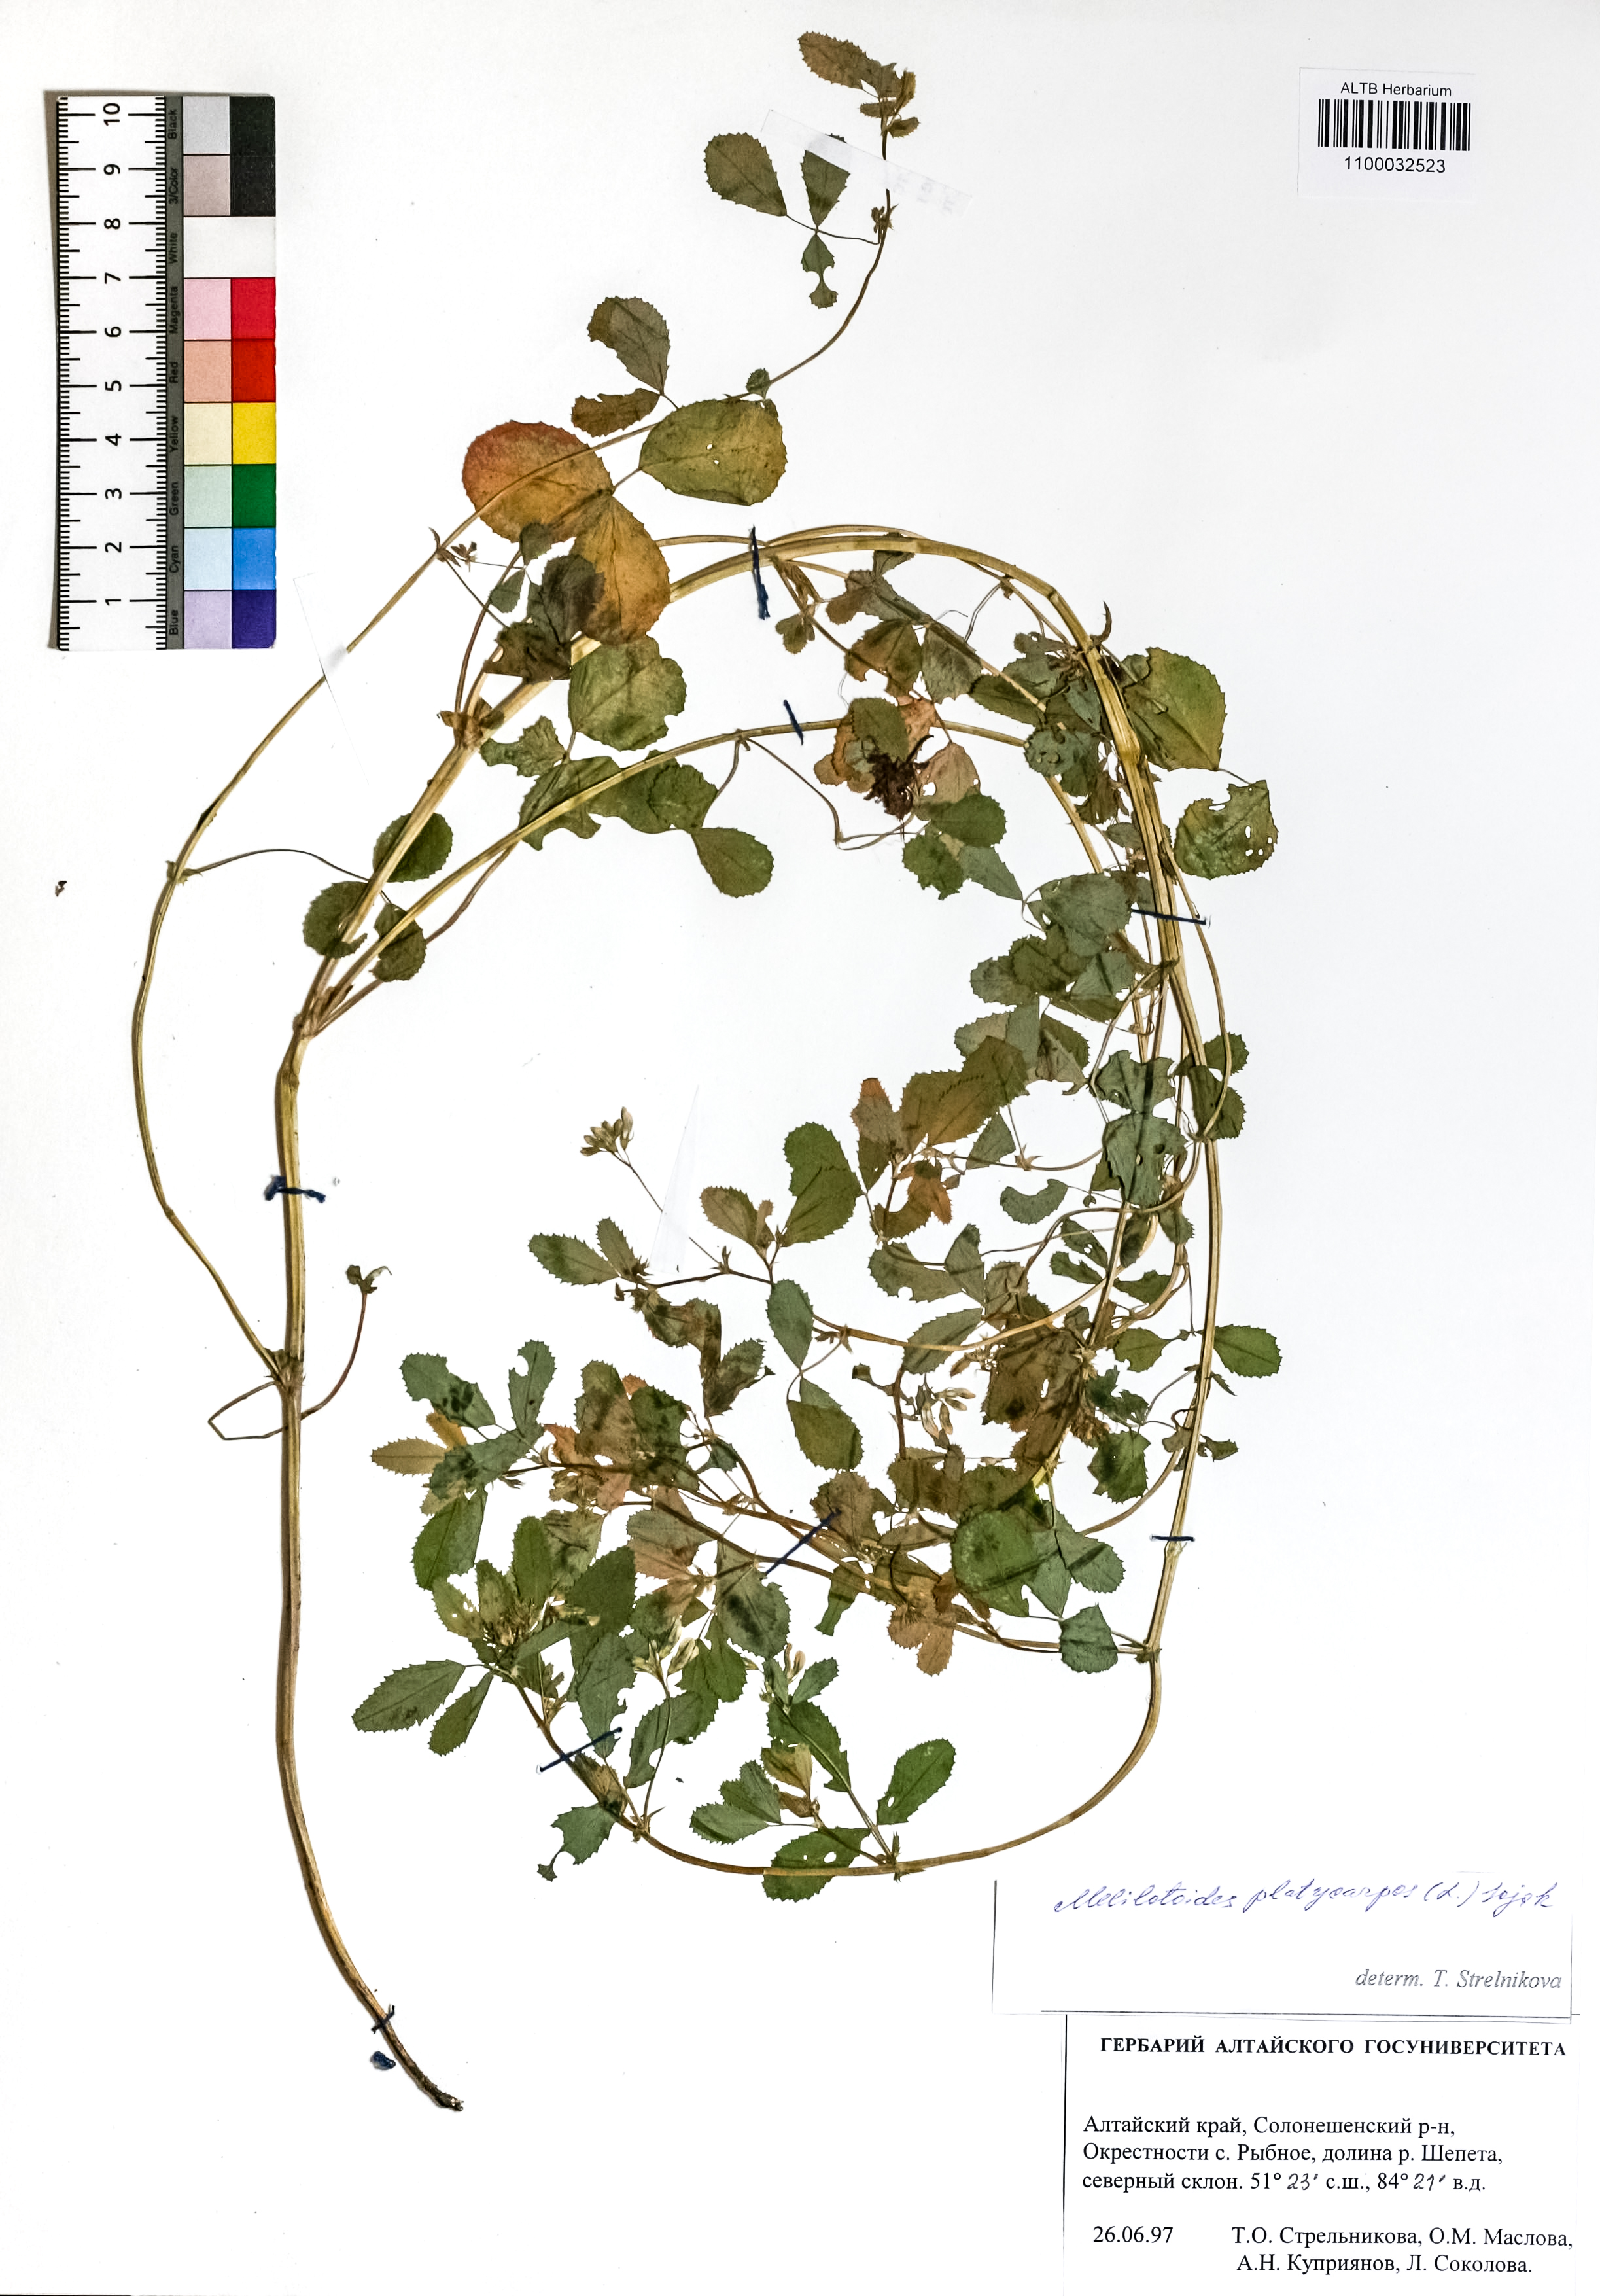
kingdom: Plantae
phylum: Tracheophyta
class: Magnoliopsida
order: Fabales
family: Fabaceae
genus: Medicago
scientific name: Medicago platycarpos
